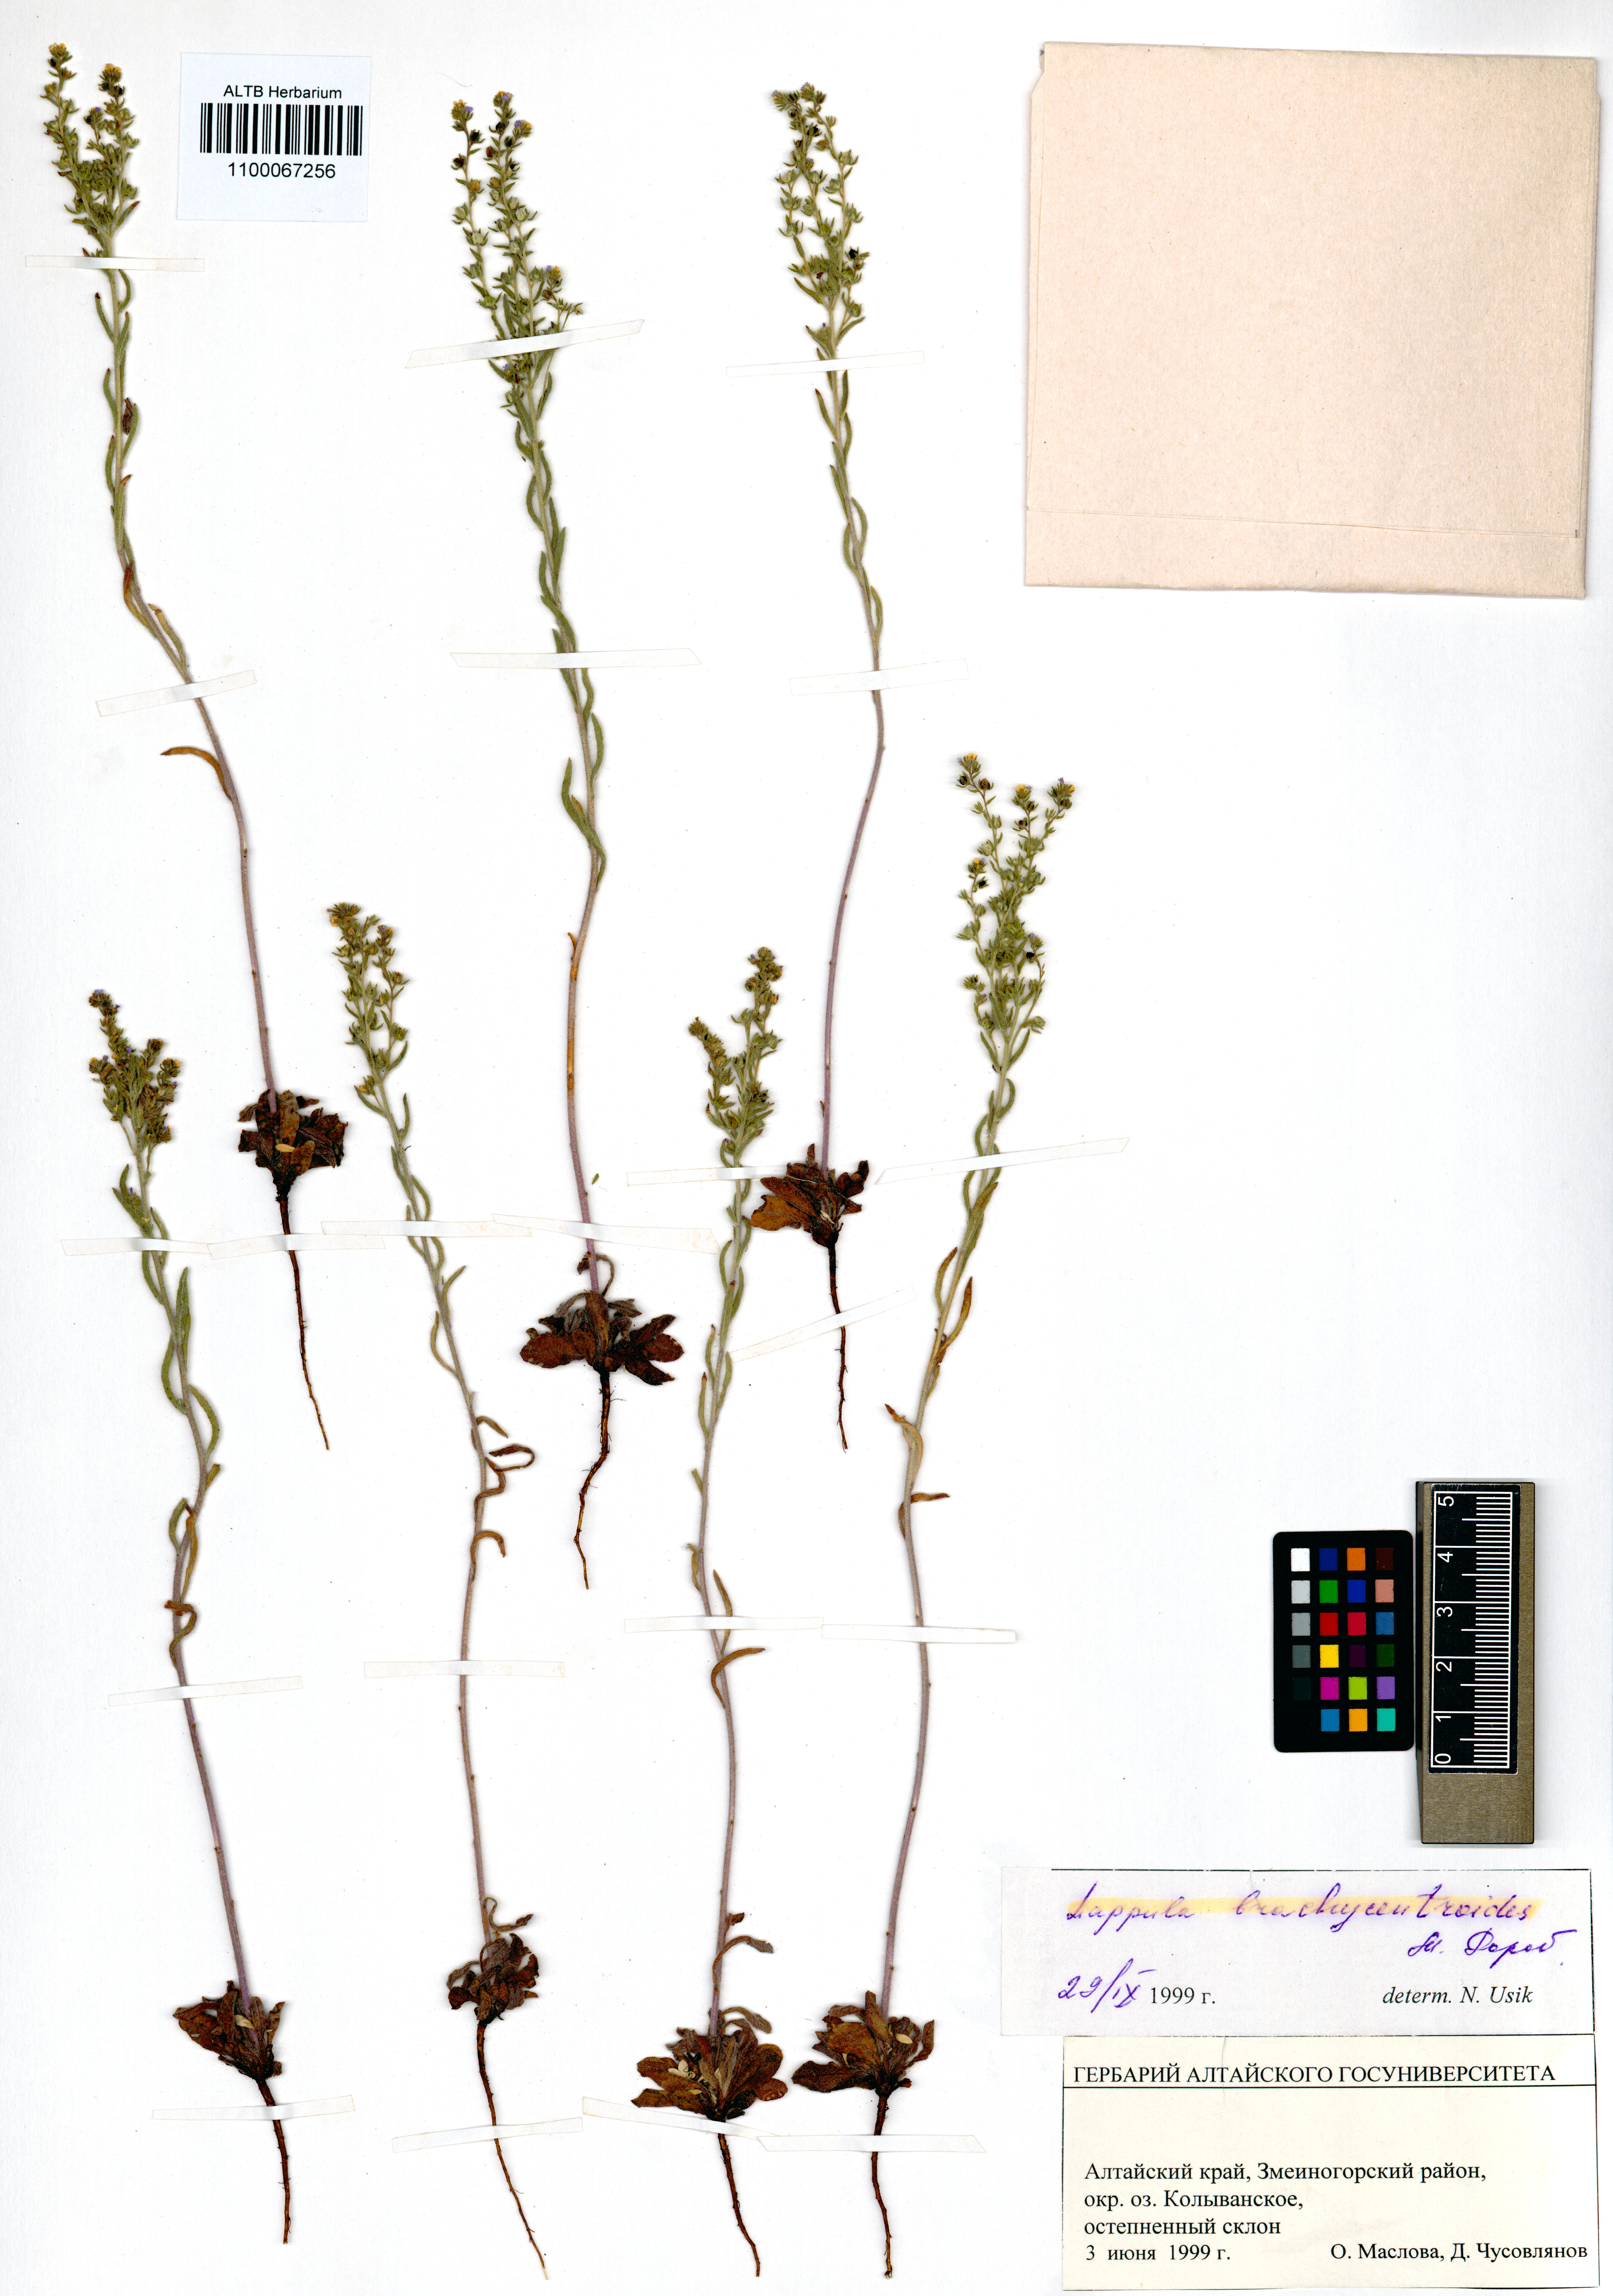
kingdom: Plantae
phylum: Tracheophyta
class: Magnoliopsida
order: Boraginales
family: Boraginaceae
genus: Lappula
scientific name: Lappula brachycentroides
